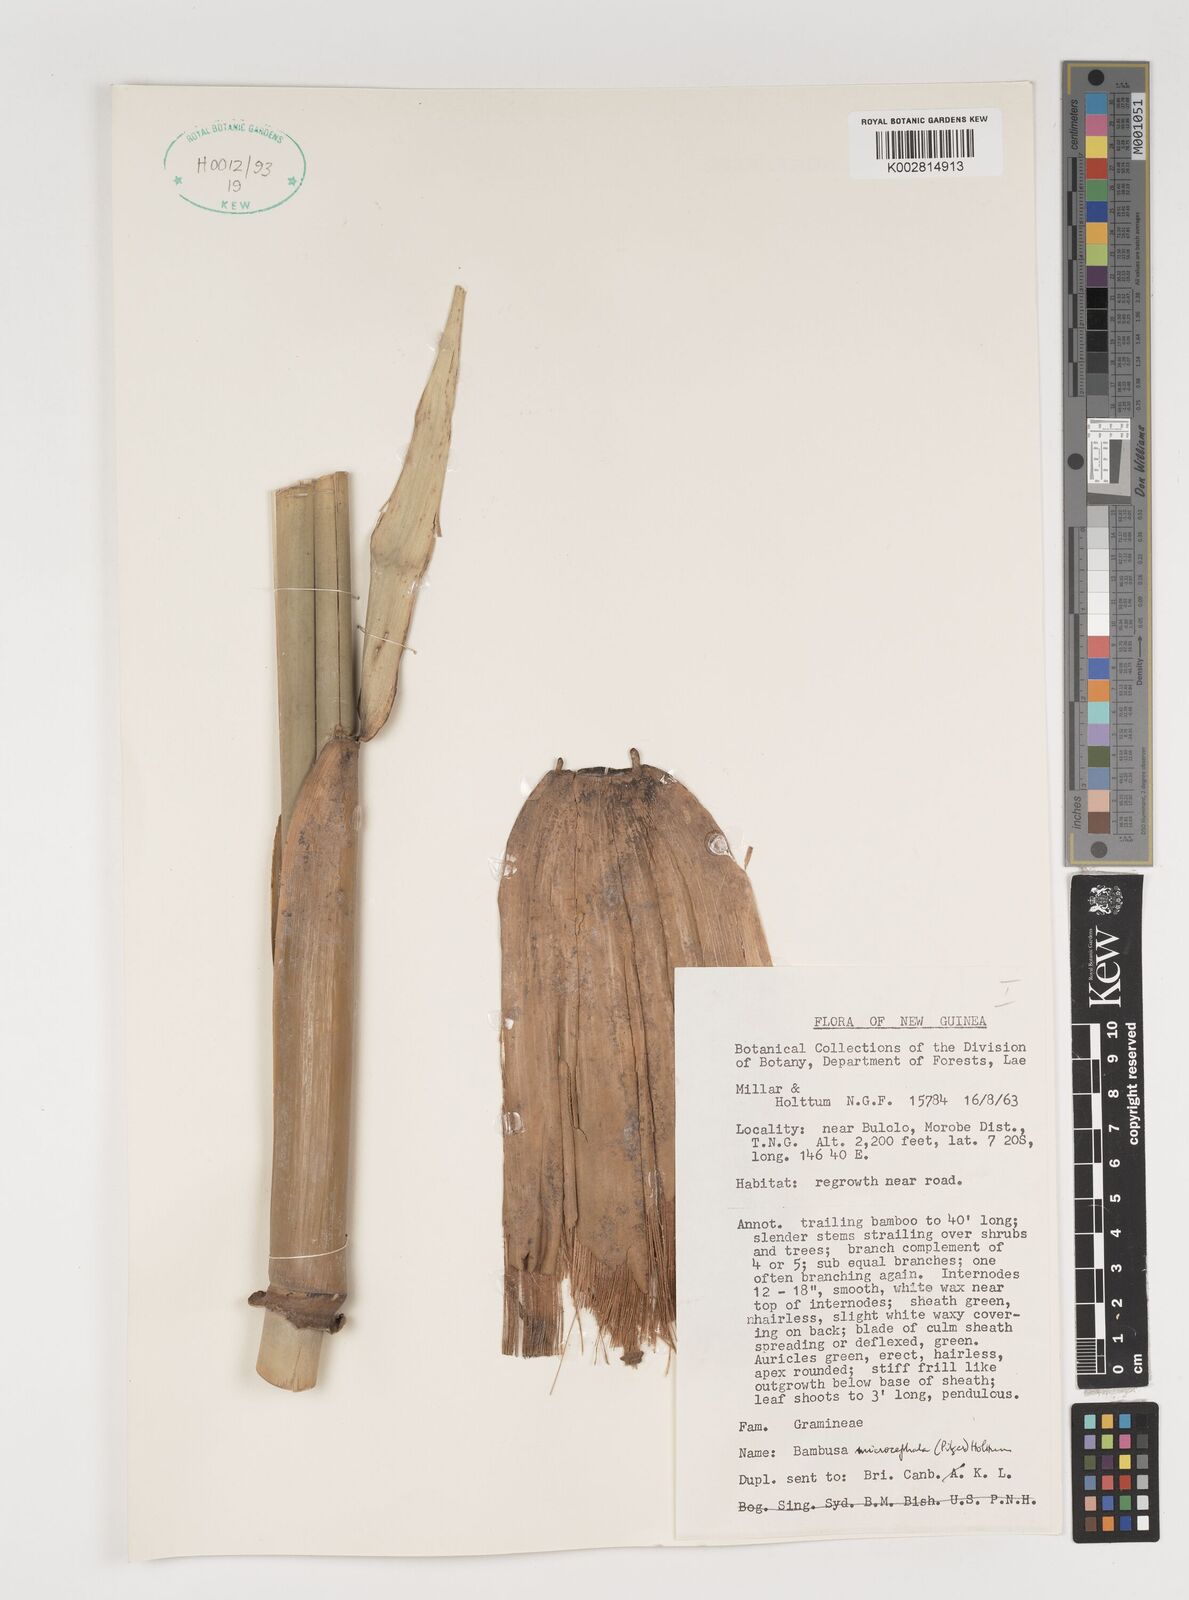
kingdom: Plantae
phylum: Tracheophyta
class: Liliopsida
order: Poales
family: Poaceae
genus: Fimbribambusa
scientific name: Fimbribambusa microcephala
